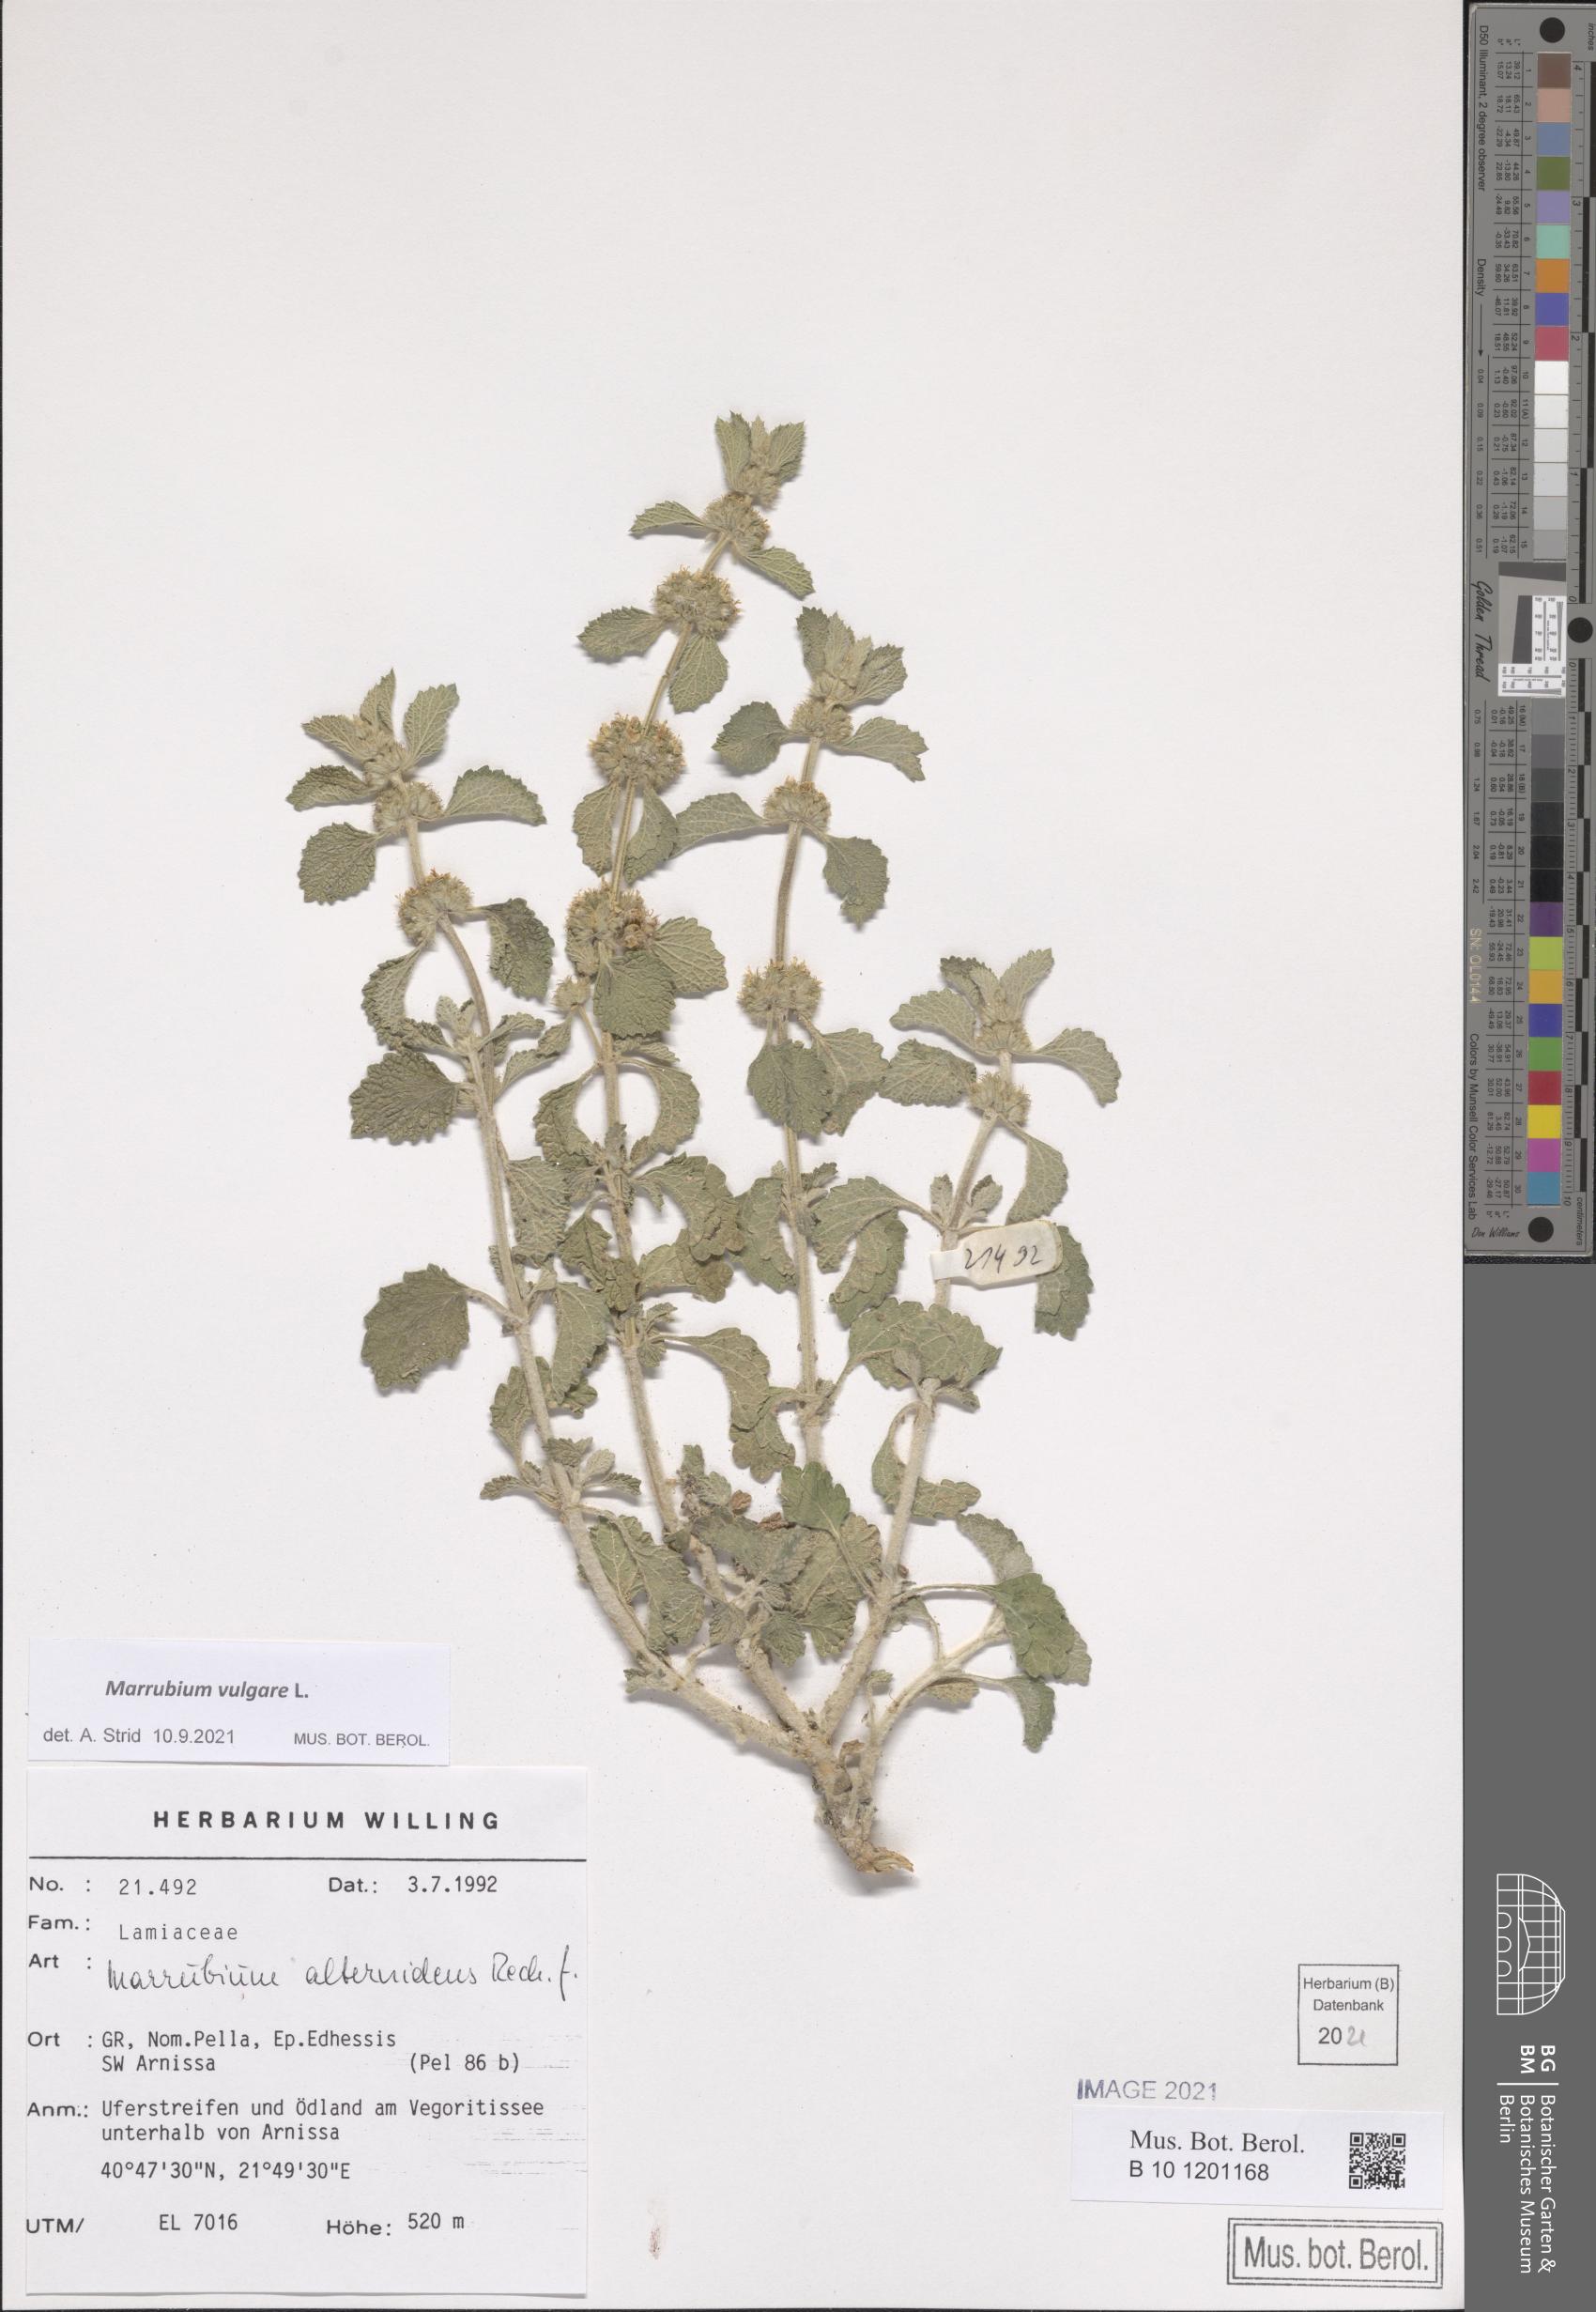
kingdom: Plantae
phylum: Tracheophyta
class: Magnoliopsida
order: Lamiales
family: Lamiaceae
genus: Marrubium
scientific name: Marrubium vulgare
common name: Horehound
